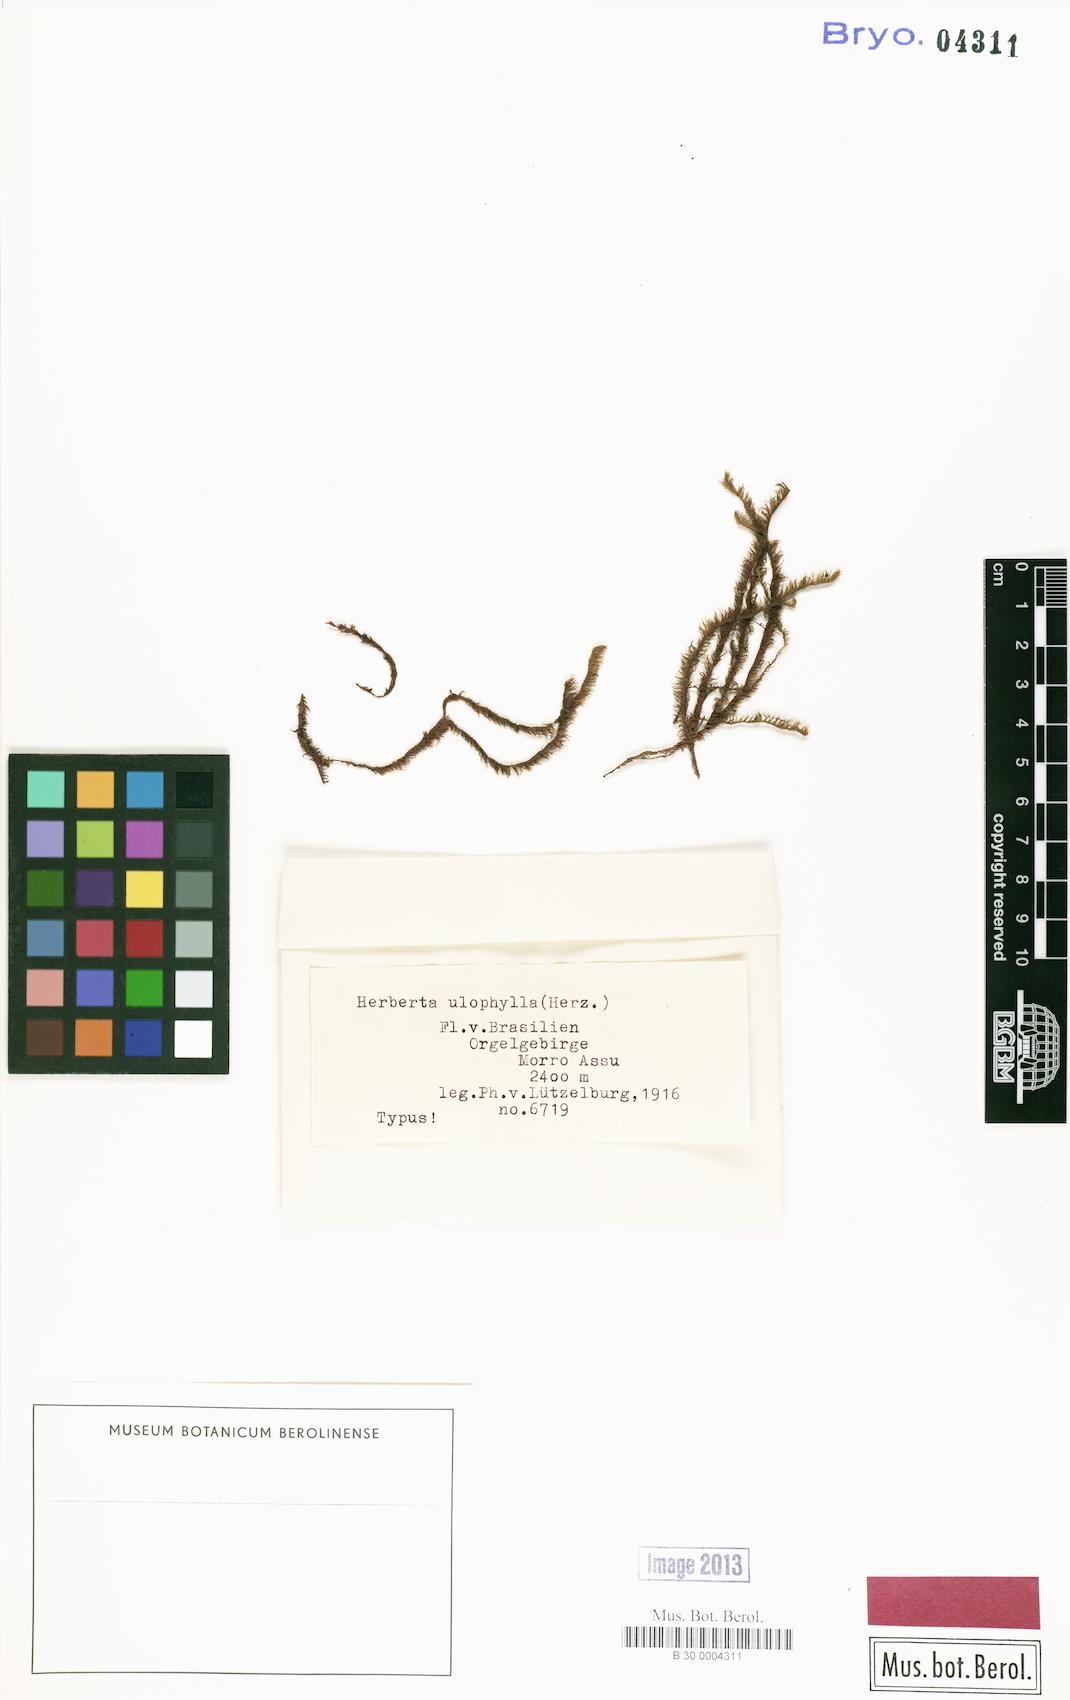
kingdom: Plantae
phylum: Marchantiophyta
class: Jungermanniopsida
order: Jungermanniales
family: Herbertaceae
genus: Herberta
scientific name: Herberta
